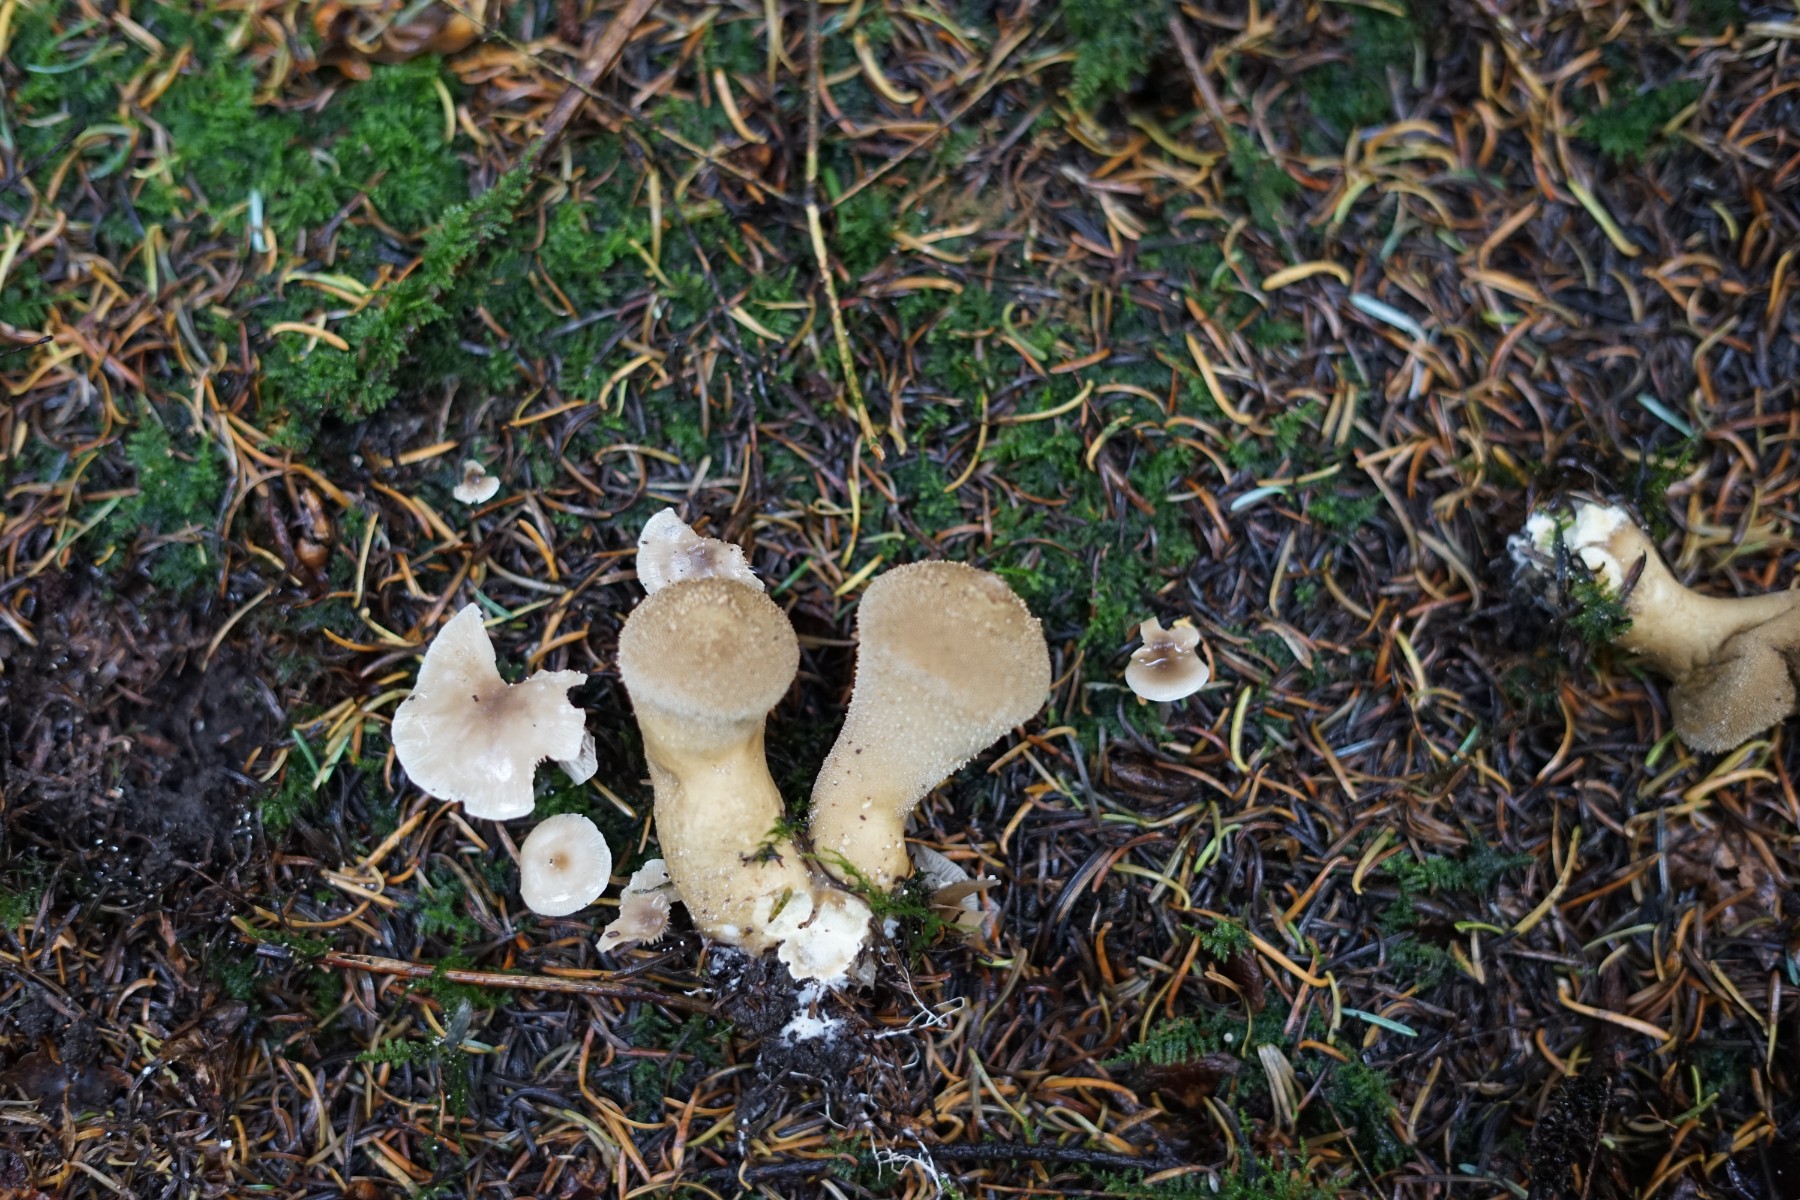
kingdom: Fungi
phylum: Basidiomycota
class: Agaricomycetes
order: Agaricales
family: Lycoperdaceae
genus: Lycoperdon
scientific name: Lycoperdon perlatum
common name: krystal-støvbold
